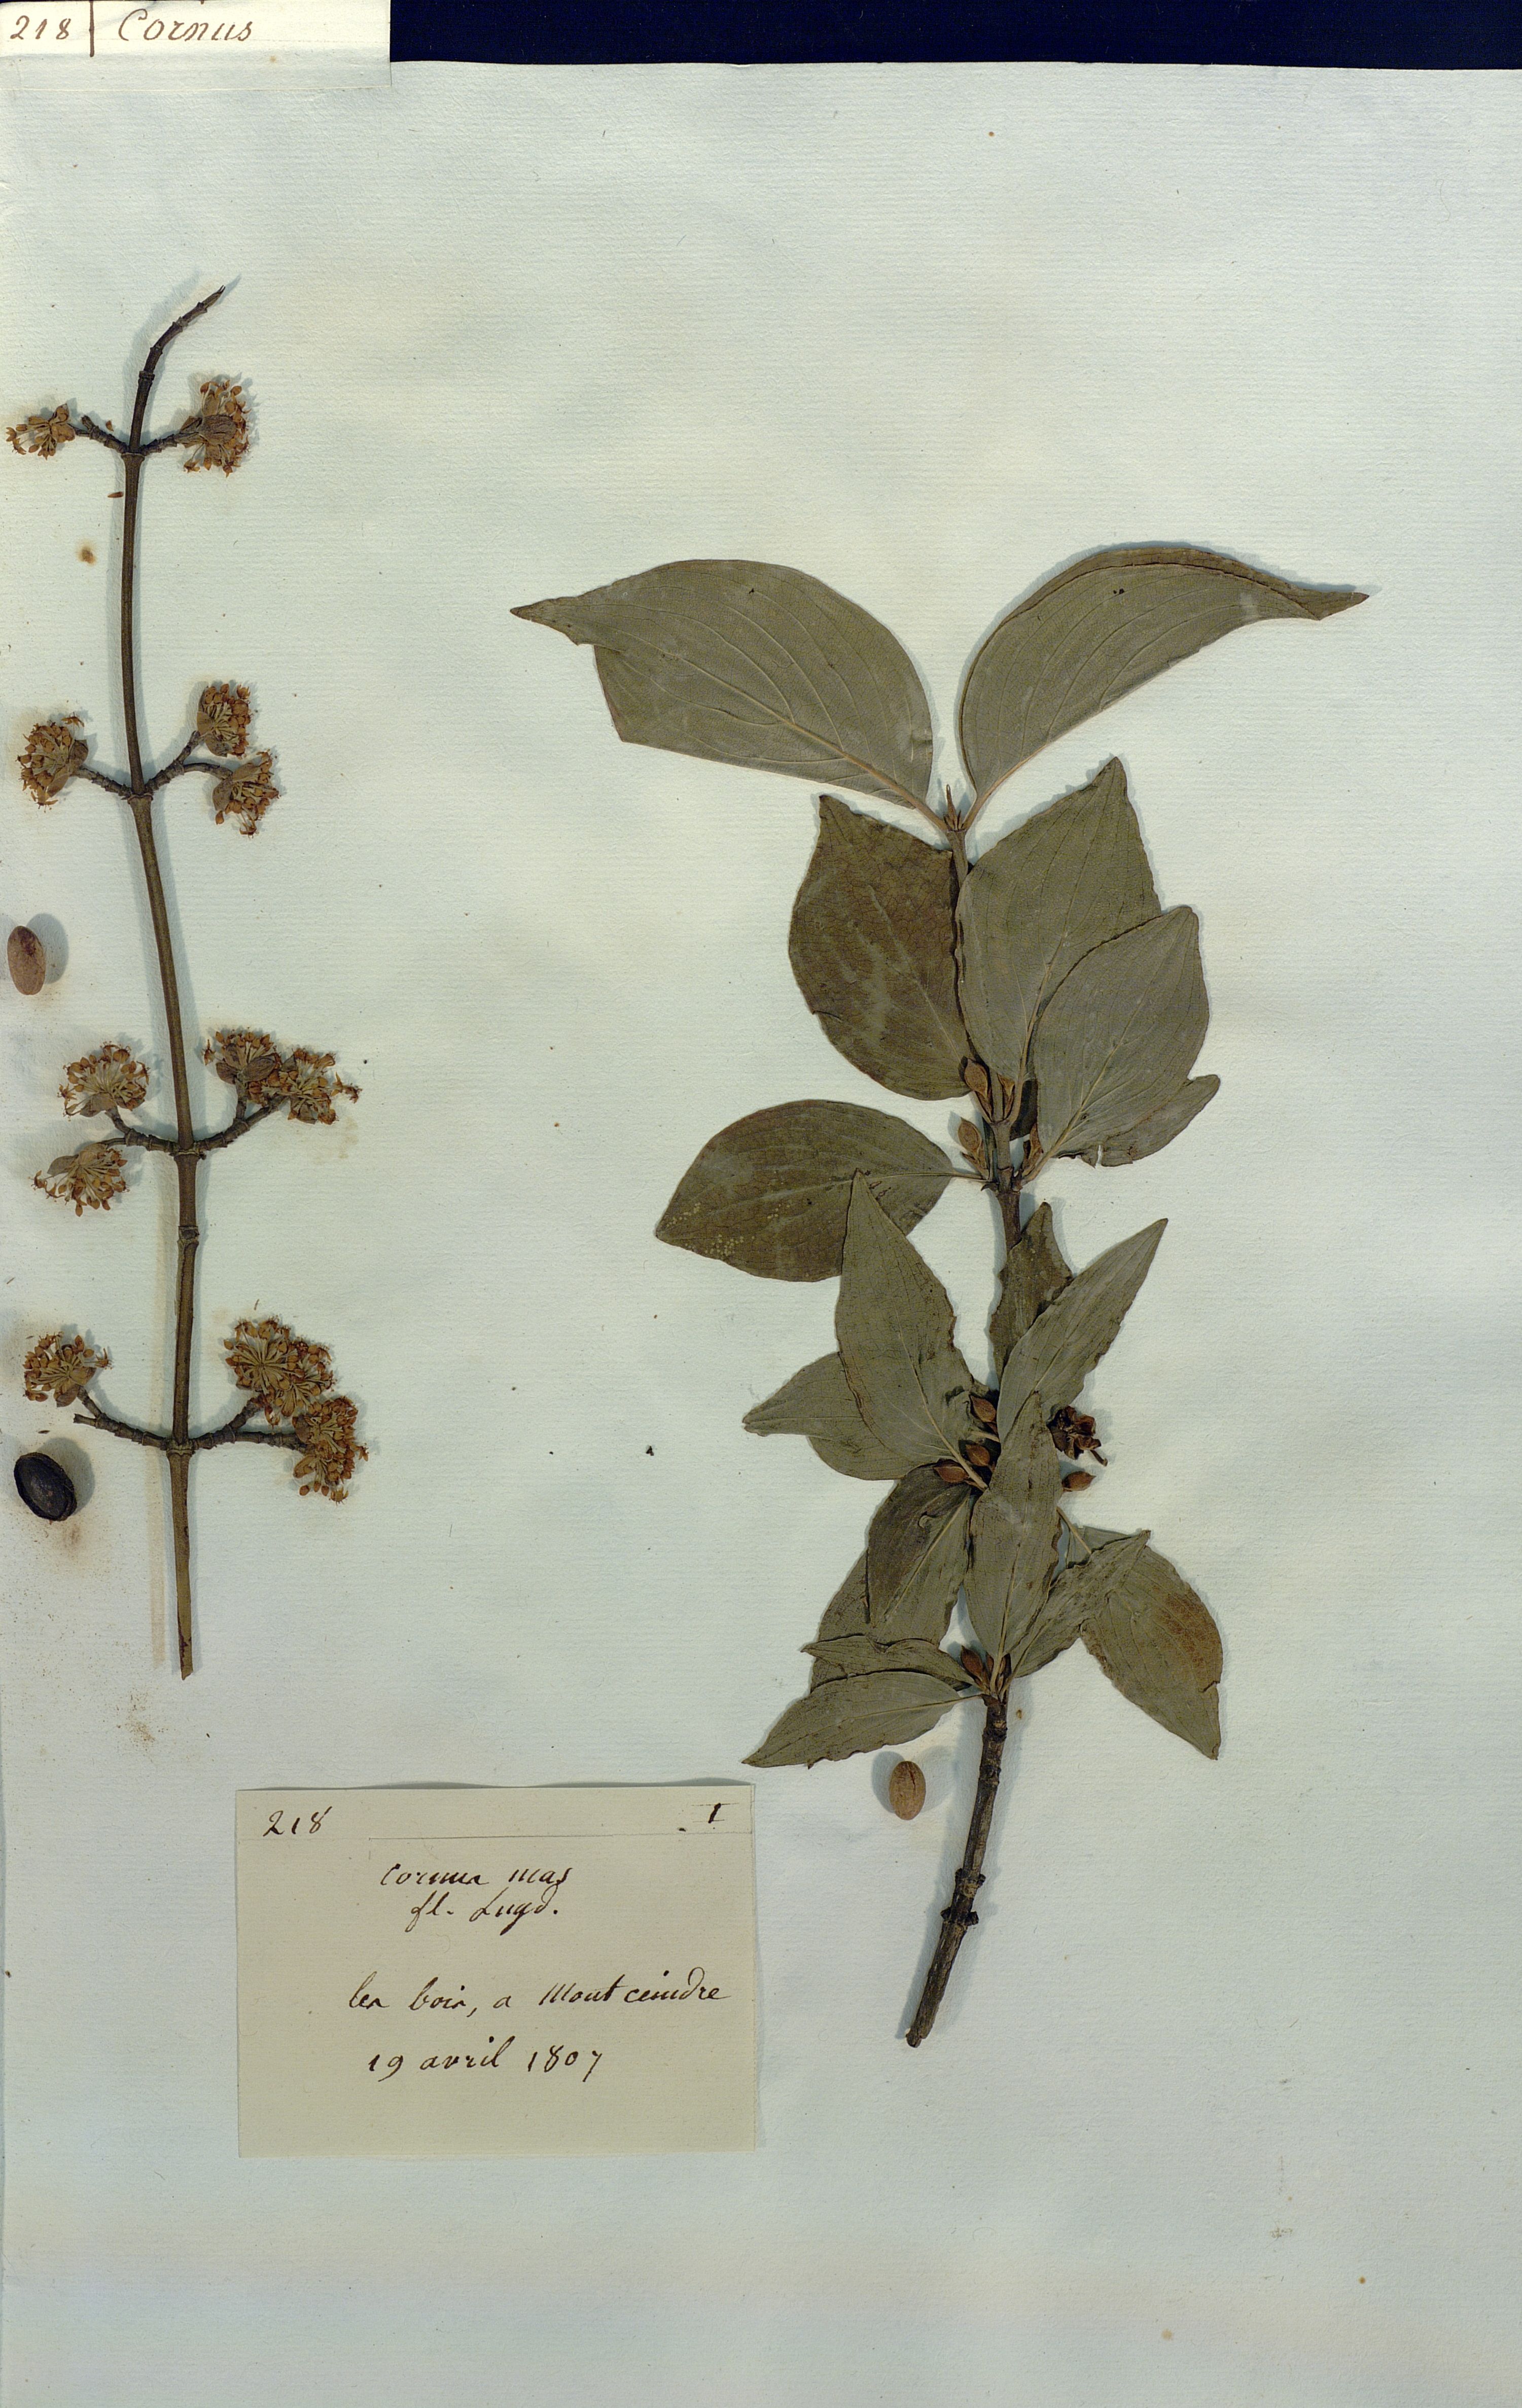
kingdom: Plantae
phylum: Tracheophyta
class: Magnoliopsida
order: Cornales
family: Cornaceae
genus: Cornus
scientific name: Cornus mas
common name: Cornelian-cherry
